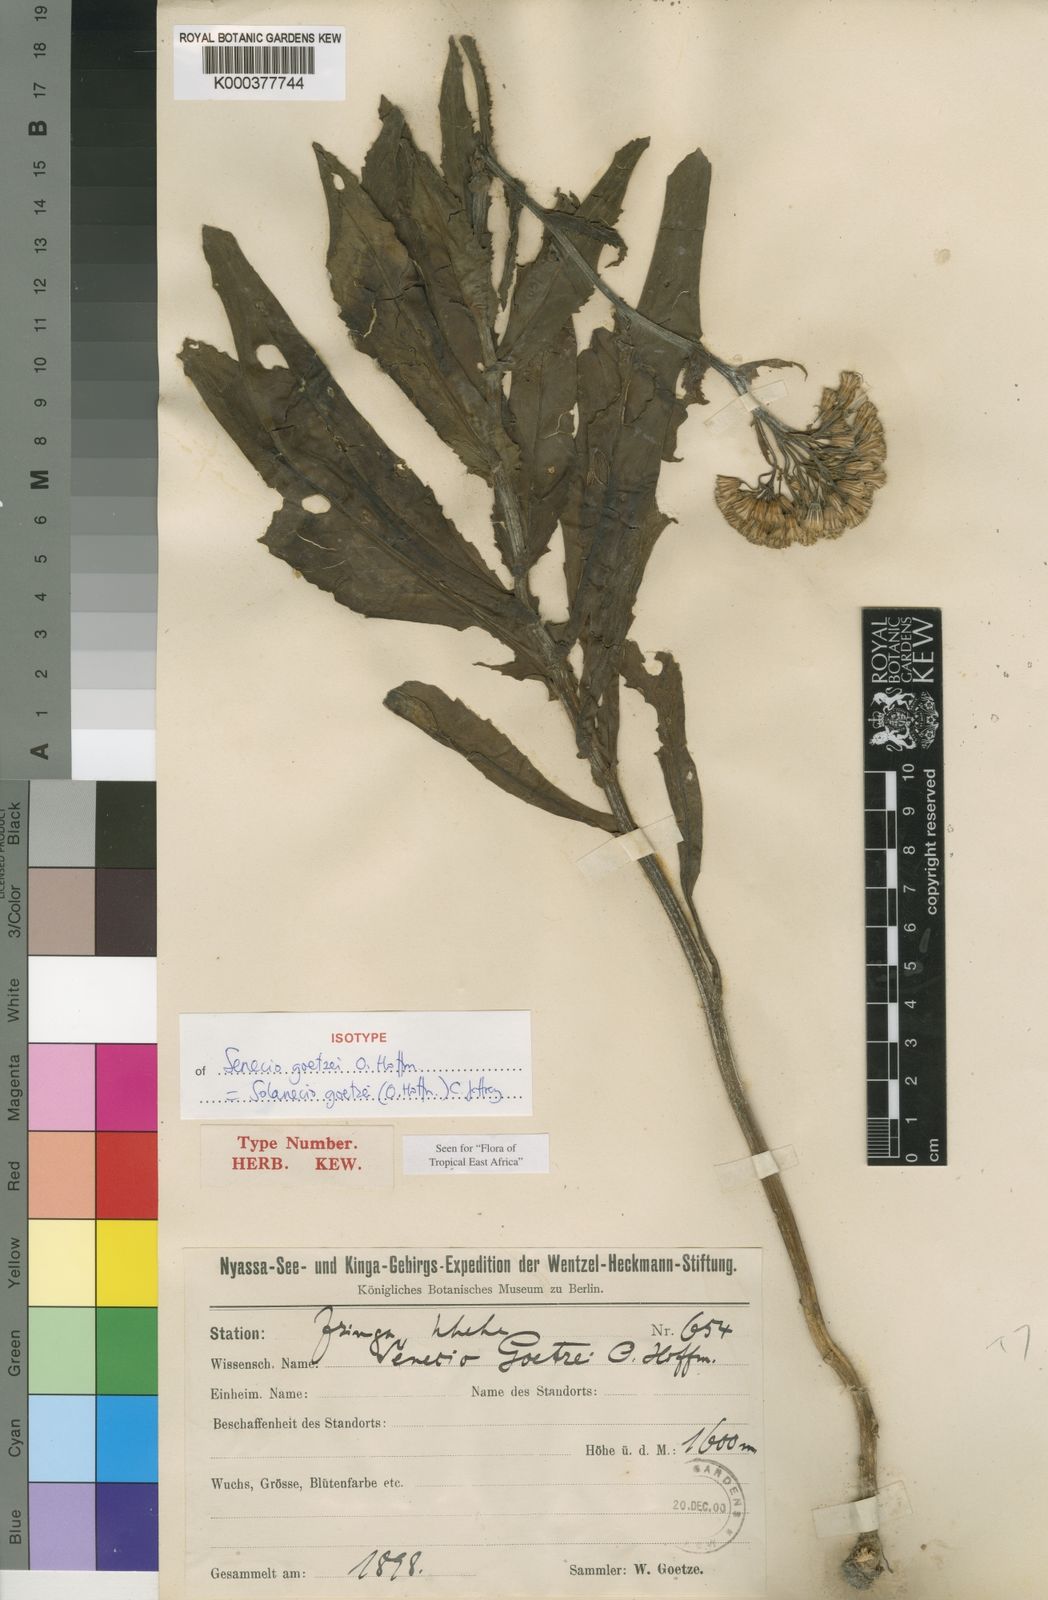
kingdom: Plantae
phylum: Tracheophyta
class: Magnoliopsida
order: Asterales
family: Asteraceae
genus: Solanecio
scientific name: Solanecio goetzei
